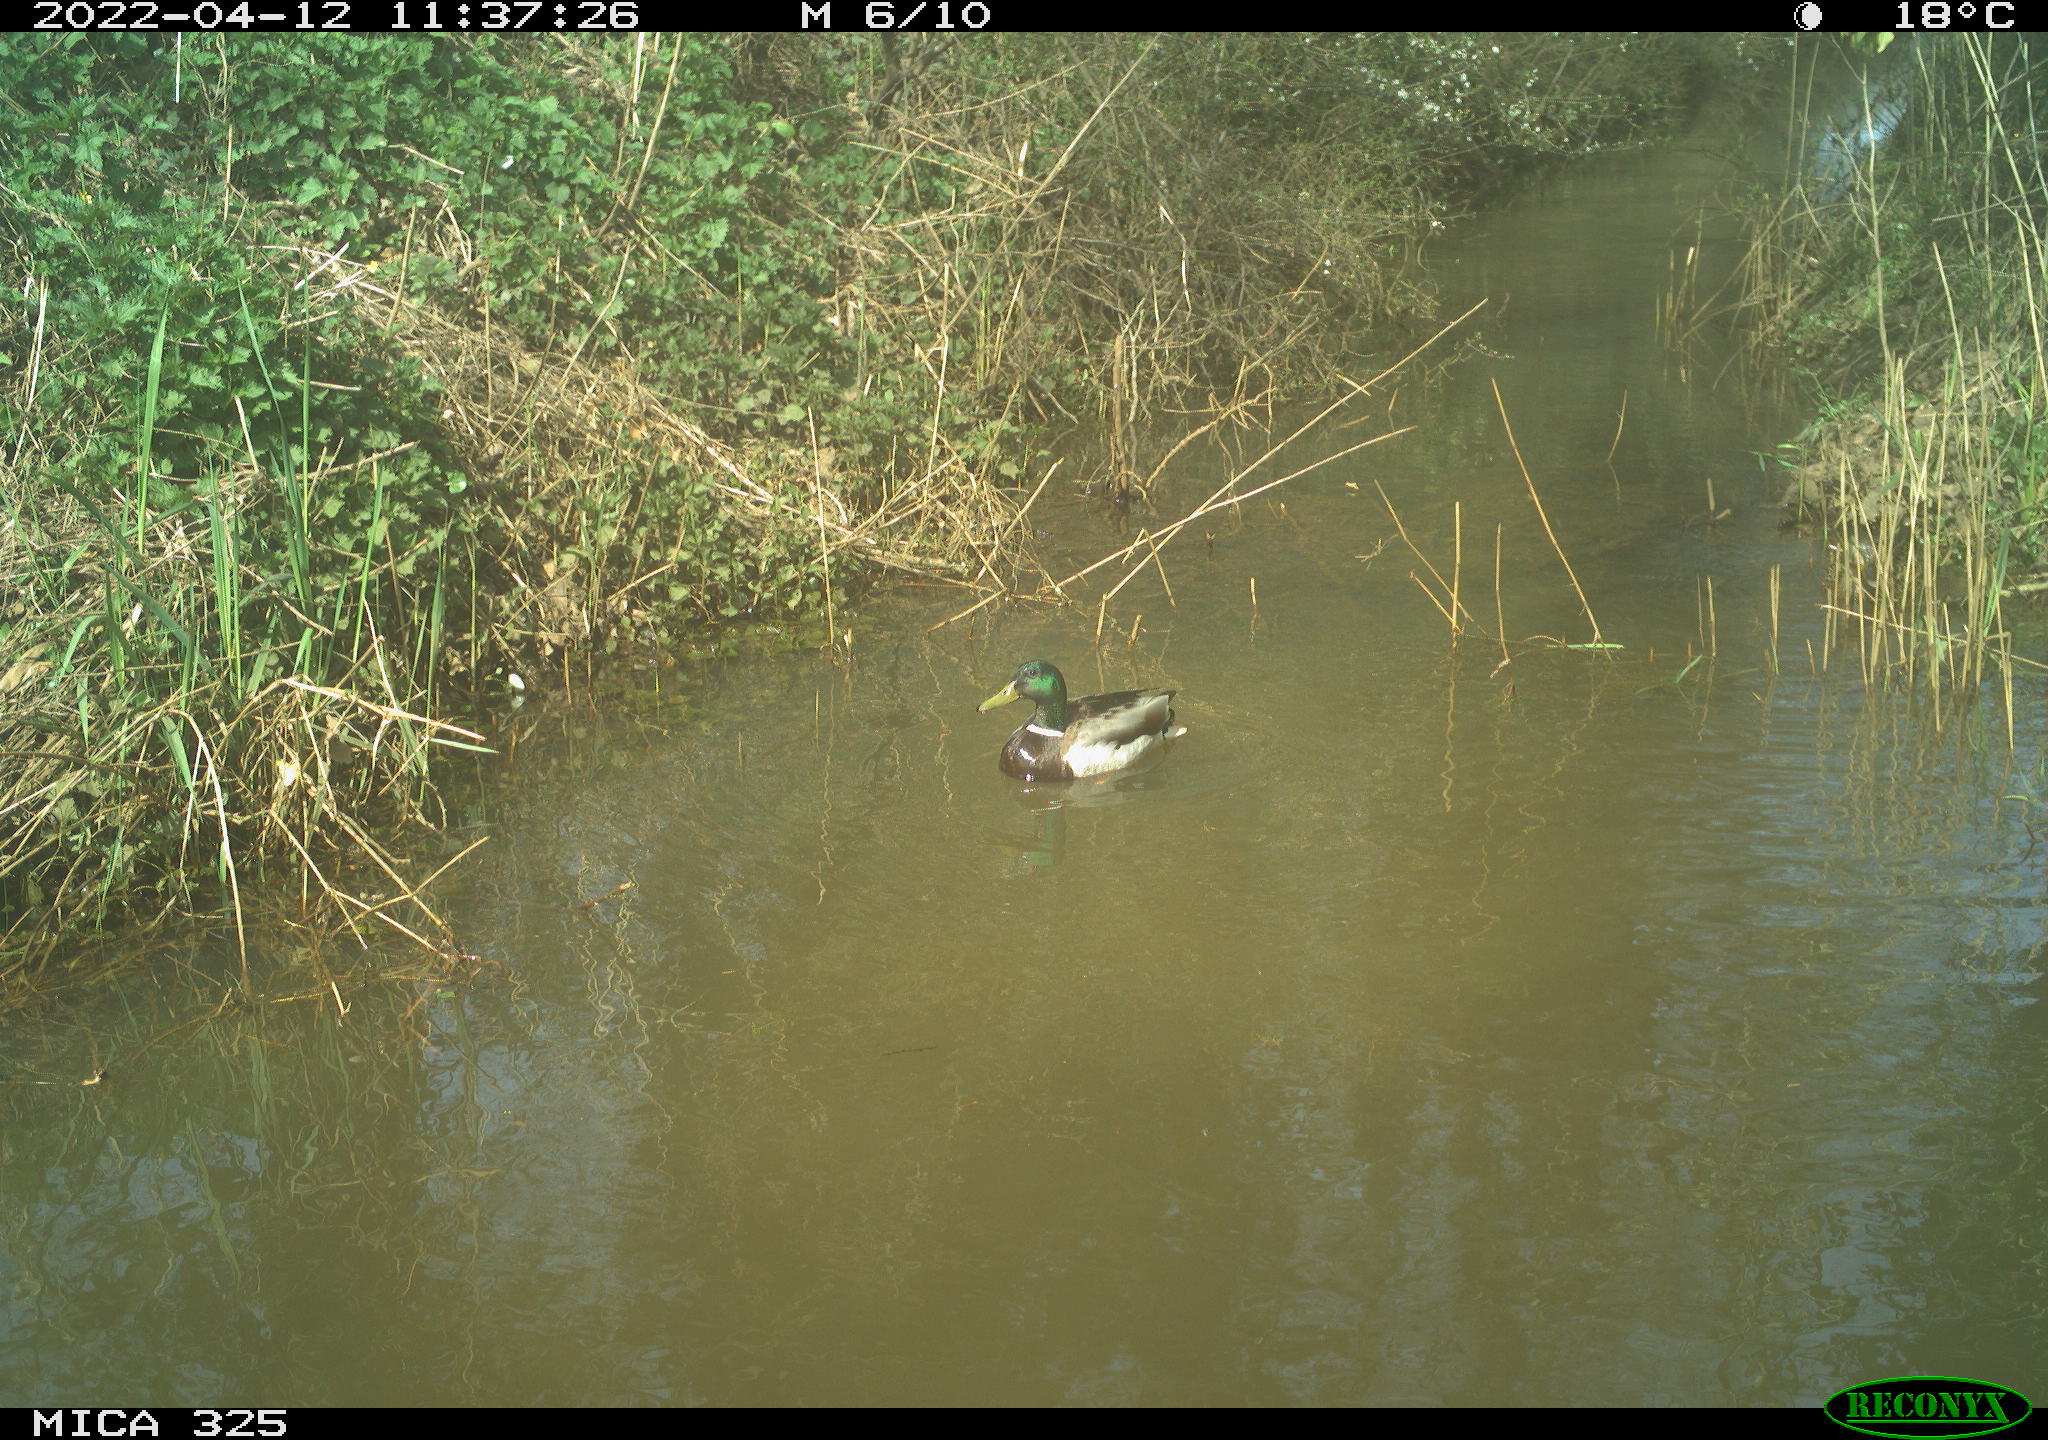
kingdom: Animalia
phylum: Chordata
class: Aves
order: Anseriformes
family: Anatidae
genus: Anas
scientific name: Anas platyrhynchos
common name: Mallard
